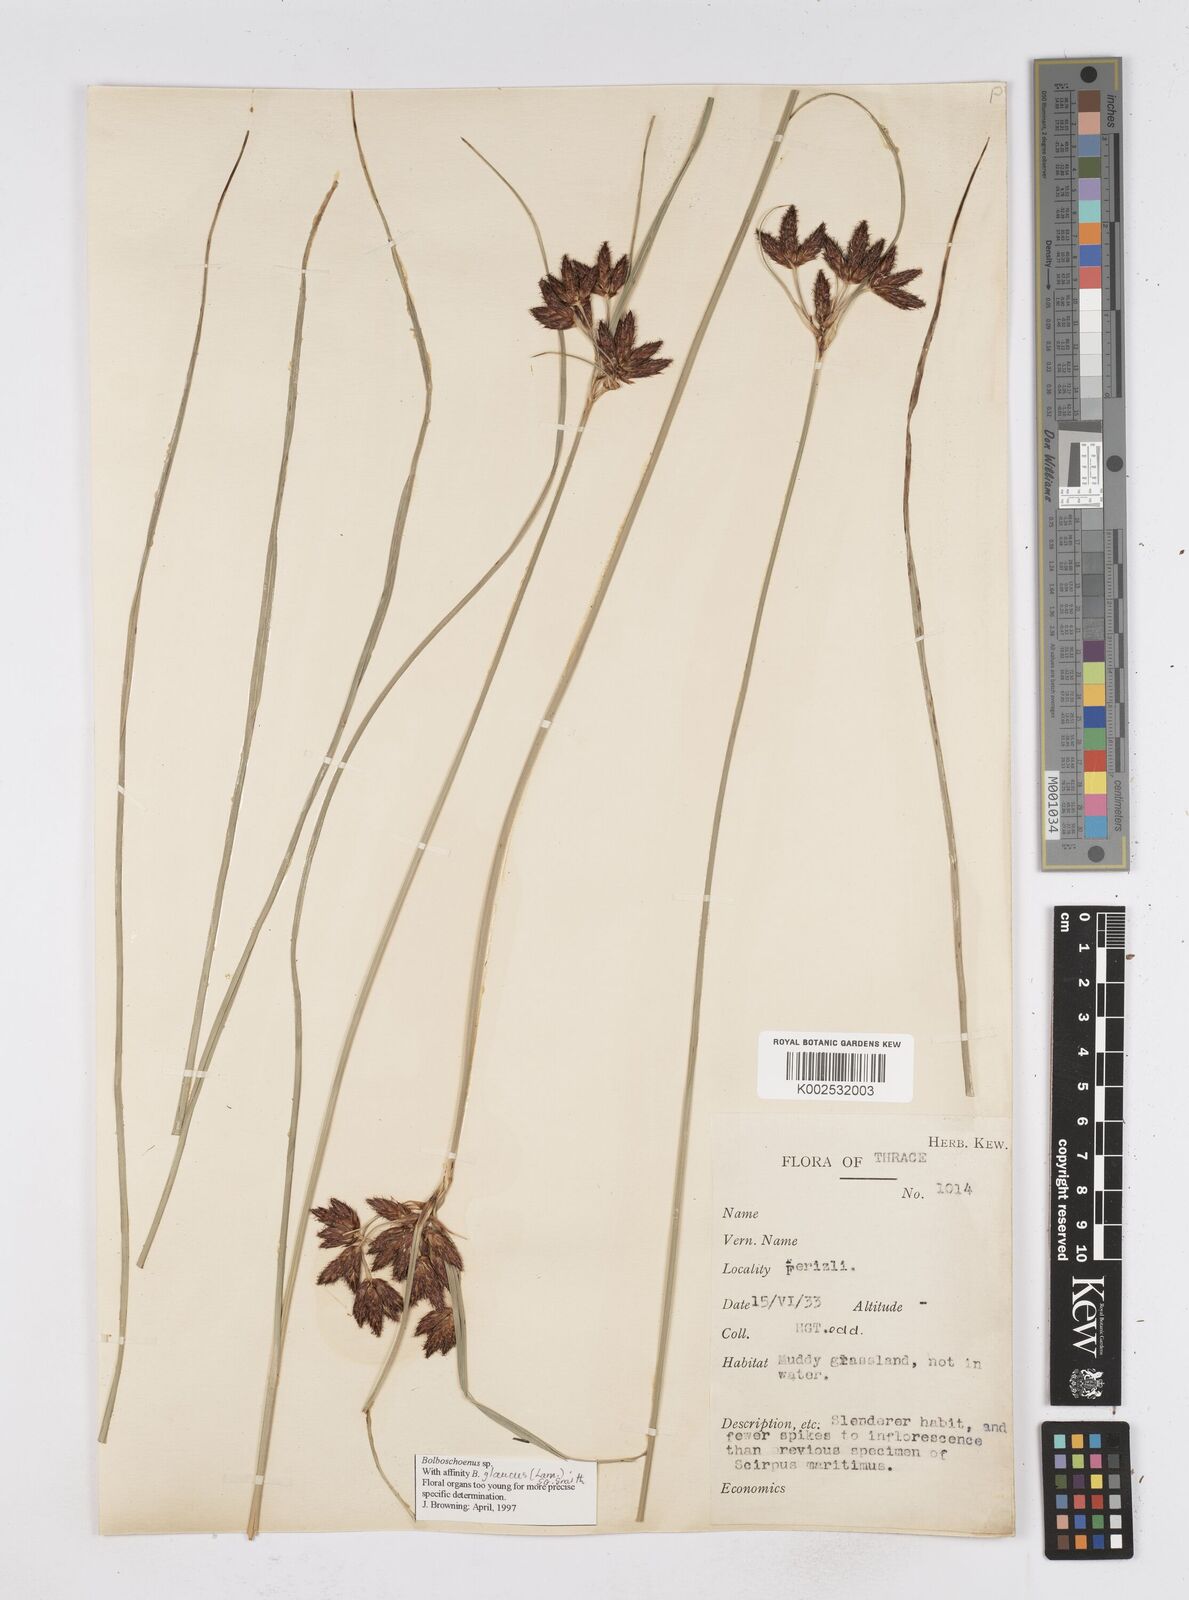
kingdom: Plantae
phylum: Tracheophyta
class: Liliopsida
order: Poales
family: Cyperaceae
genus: Bolboschoenus
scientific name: Bolboschoenus maritimus
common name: Sea club-rush
